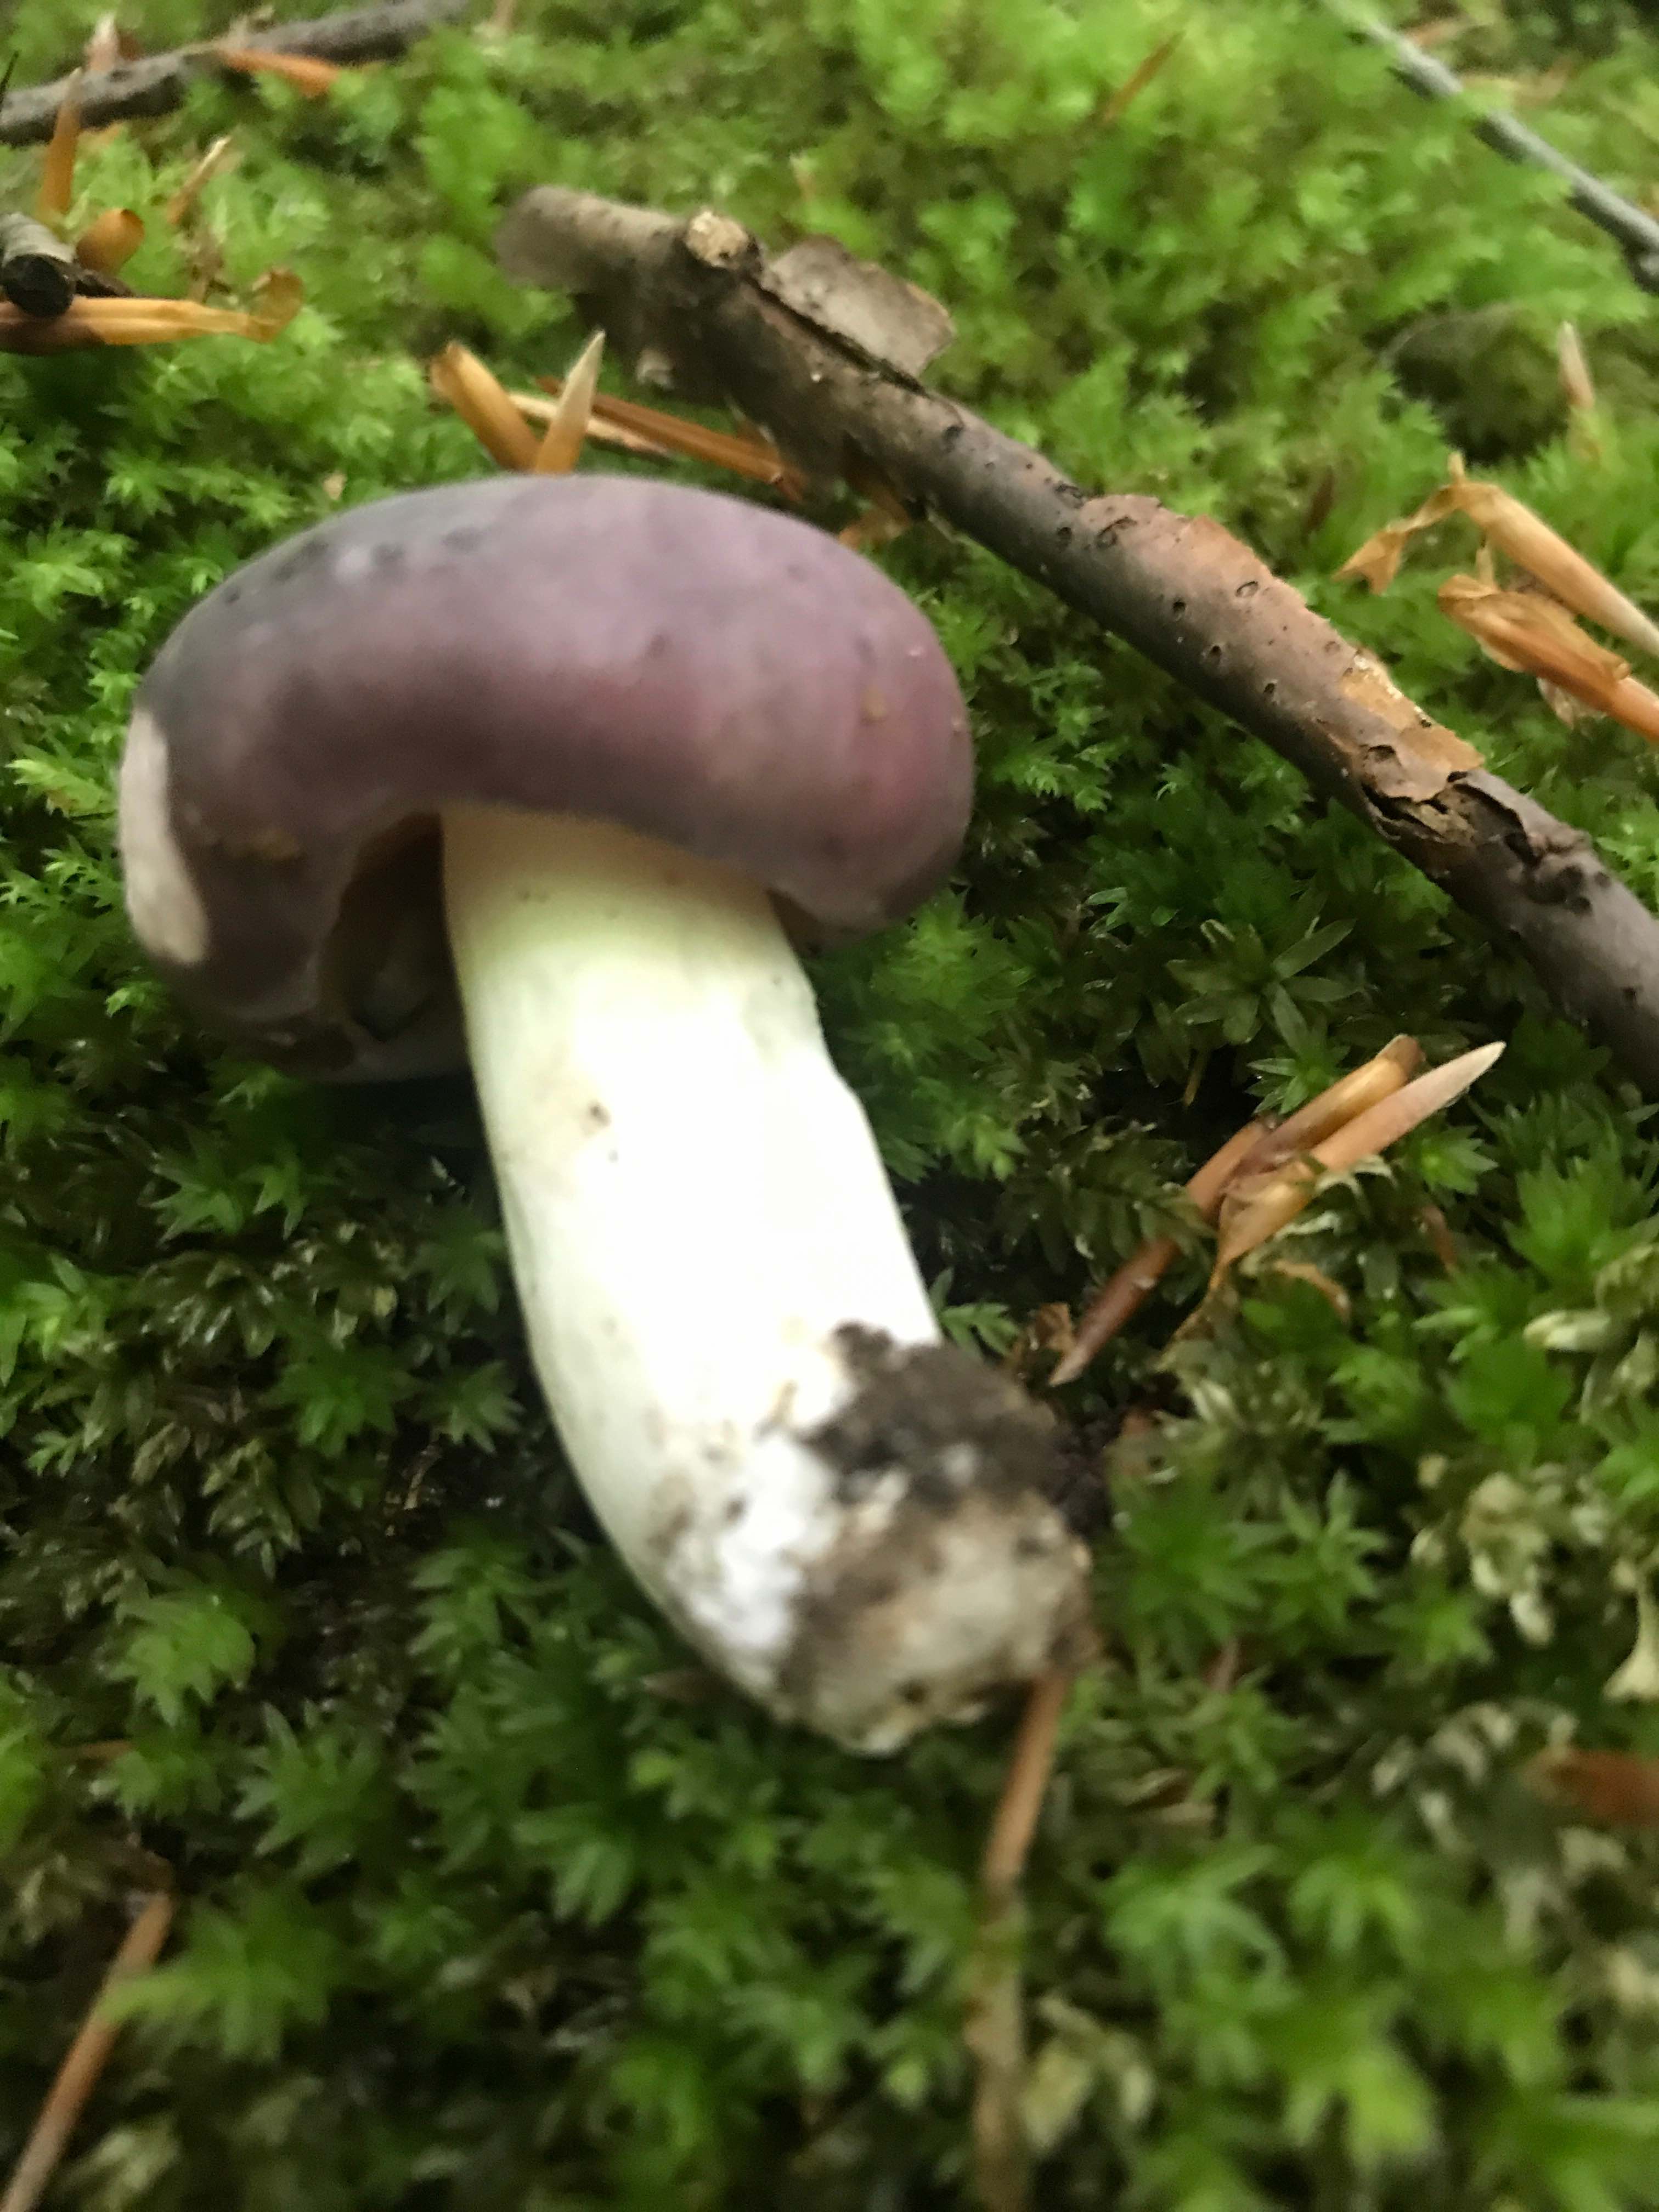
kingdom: Fungi
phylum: Basidiomycota
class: Agaricomycetes
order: Russulales
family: Russulaceae
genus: Russula
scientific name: Russula
